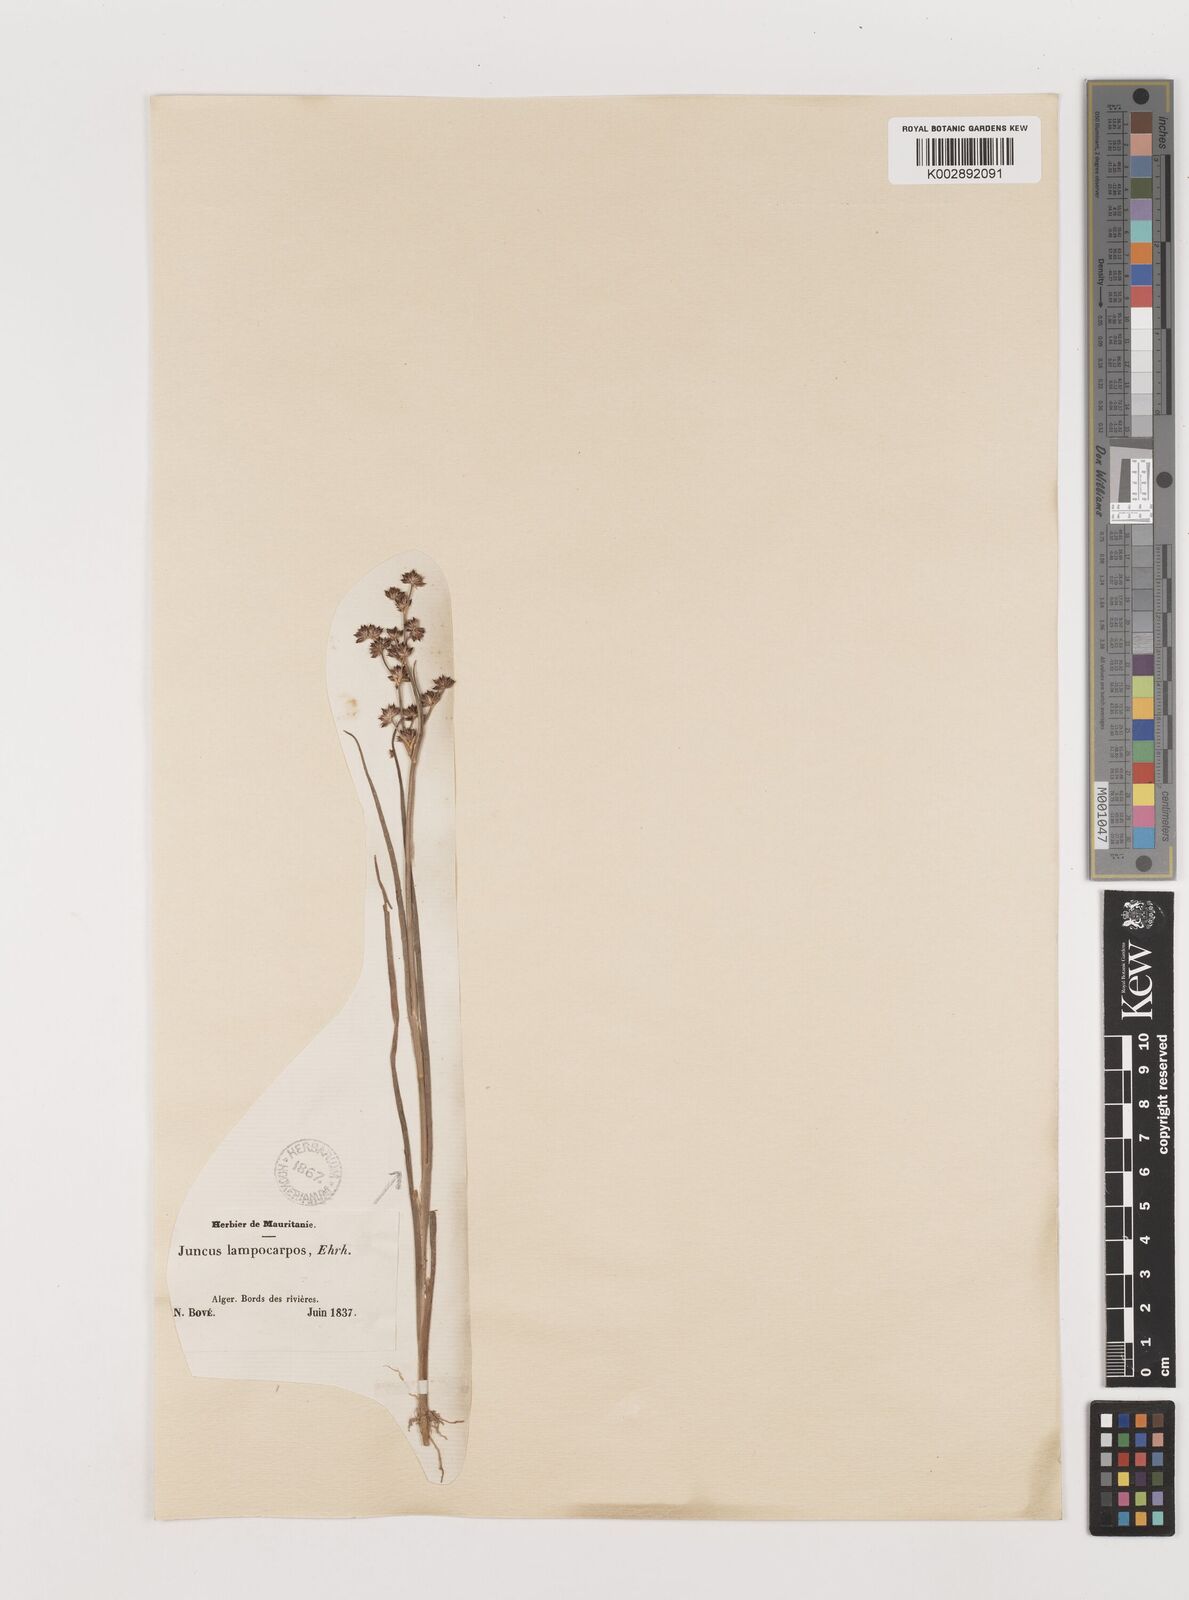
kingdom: Plantae
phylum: Tracheophyta
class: Liliopsida
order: Poales
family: Juncaceae
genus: Juncus
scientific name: Juncus articulatus
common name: Jointed rush
